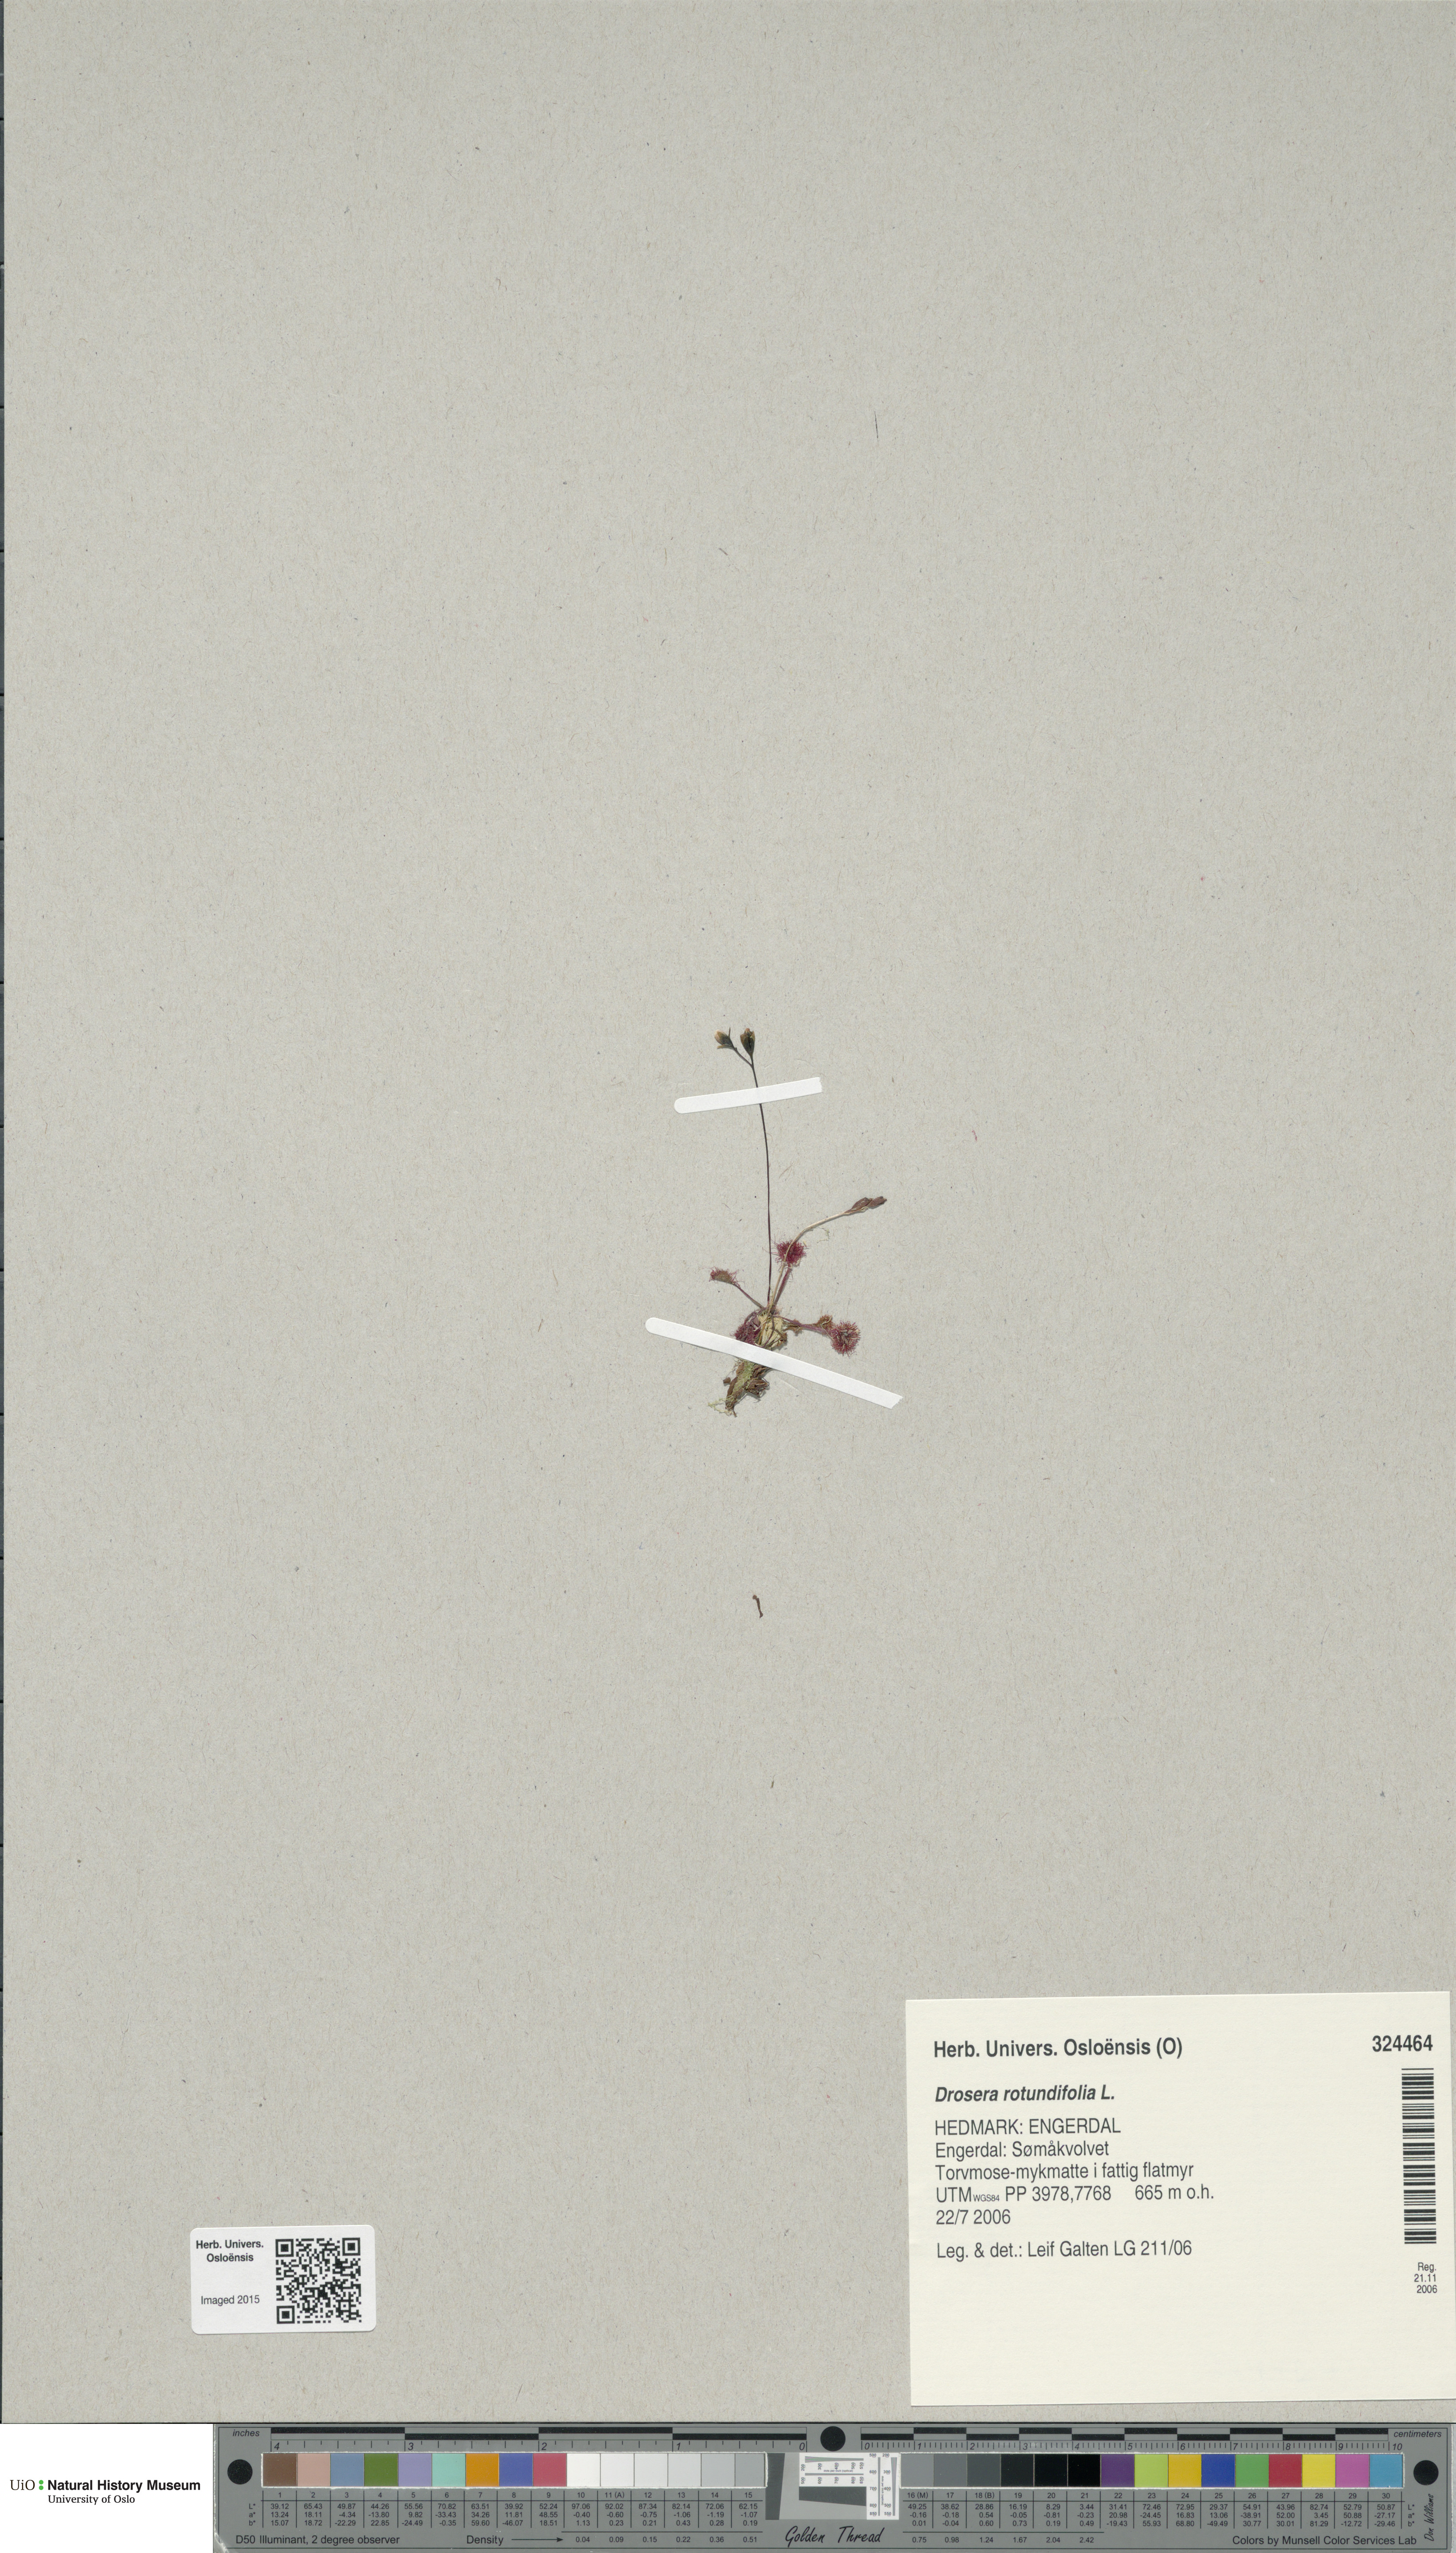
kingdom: Plantae
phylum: Tracheophyta
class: Magnoliopsida
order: Caryophyllales
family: Droseraceae
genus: Drosera
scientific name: Drosera rotundifolia
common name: Round-leaved sundew
